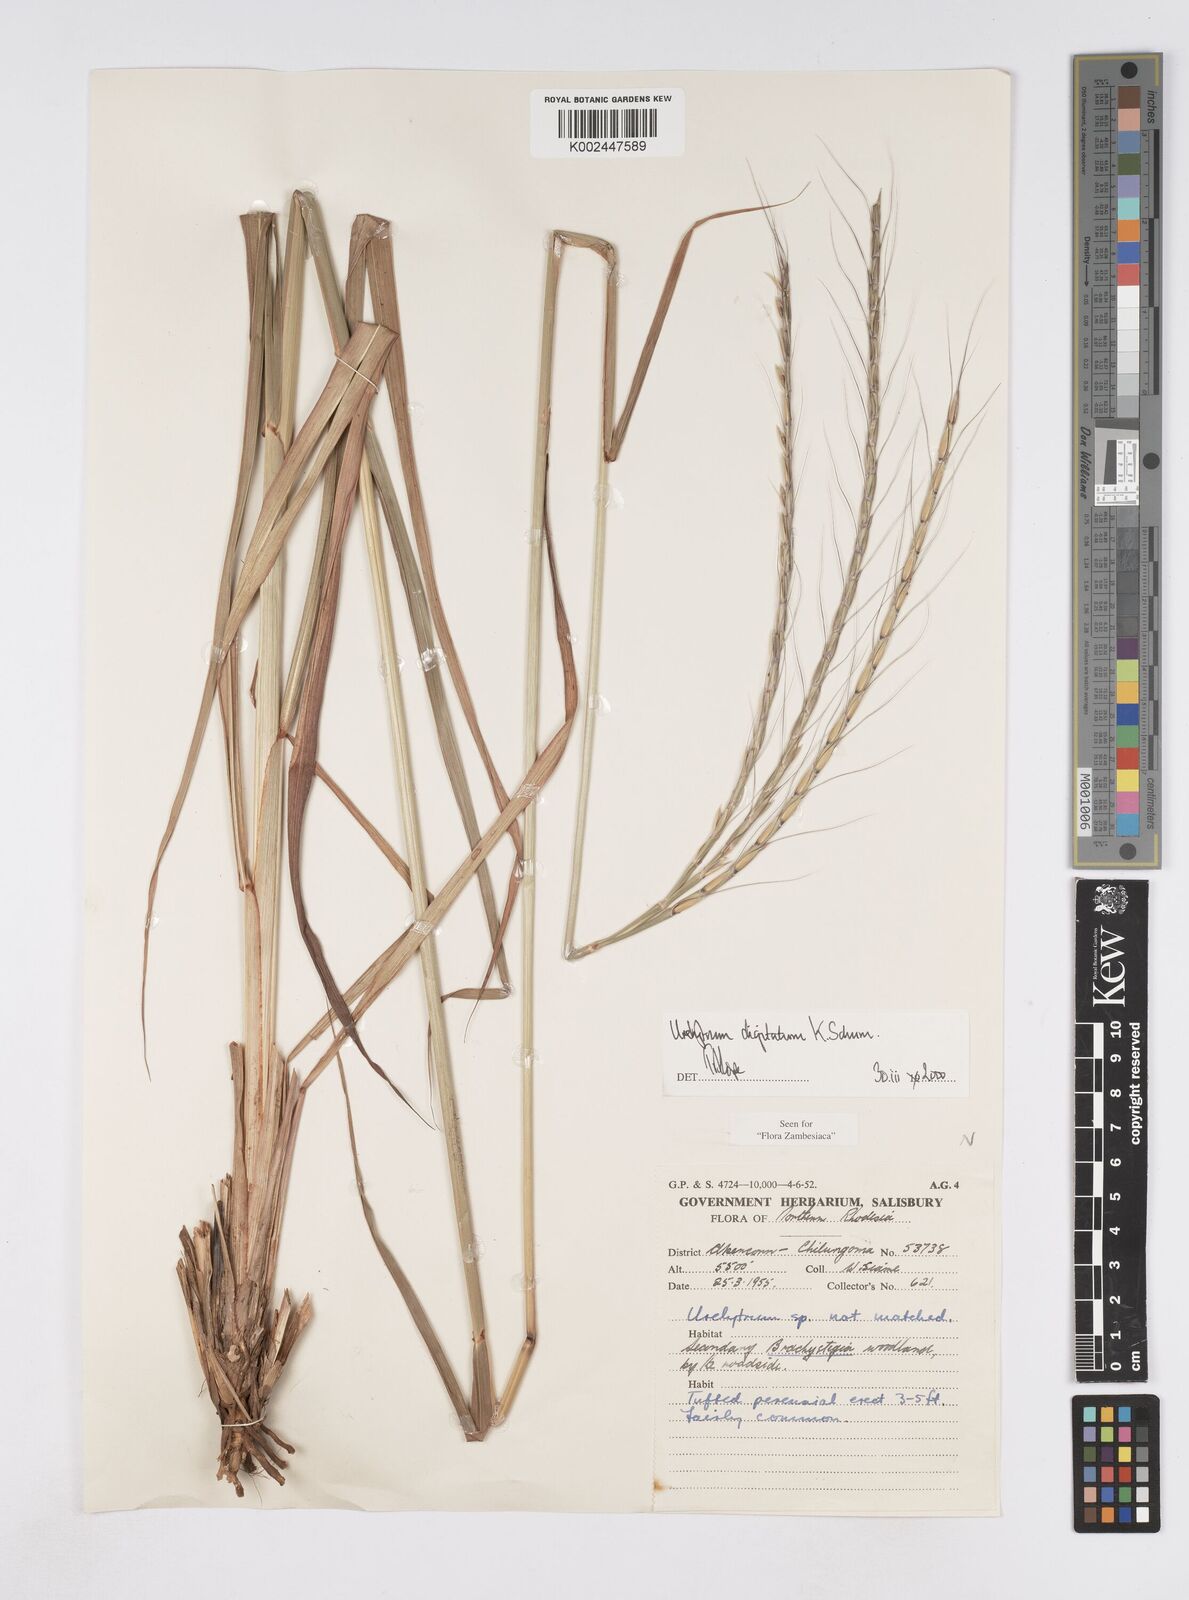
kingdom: Plantae
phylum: Tracheophyta
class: Liliopsida
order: Poales
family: Poaceae
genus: Urelytrum
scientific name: Urelytrum digitatum
